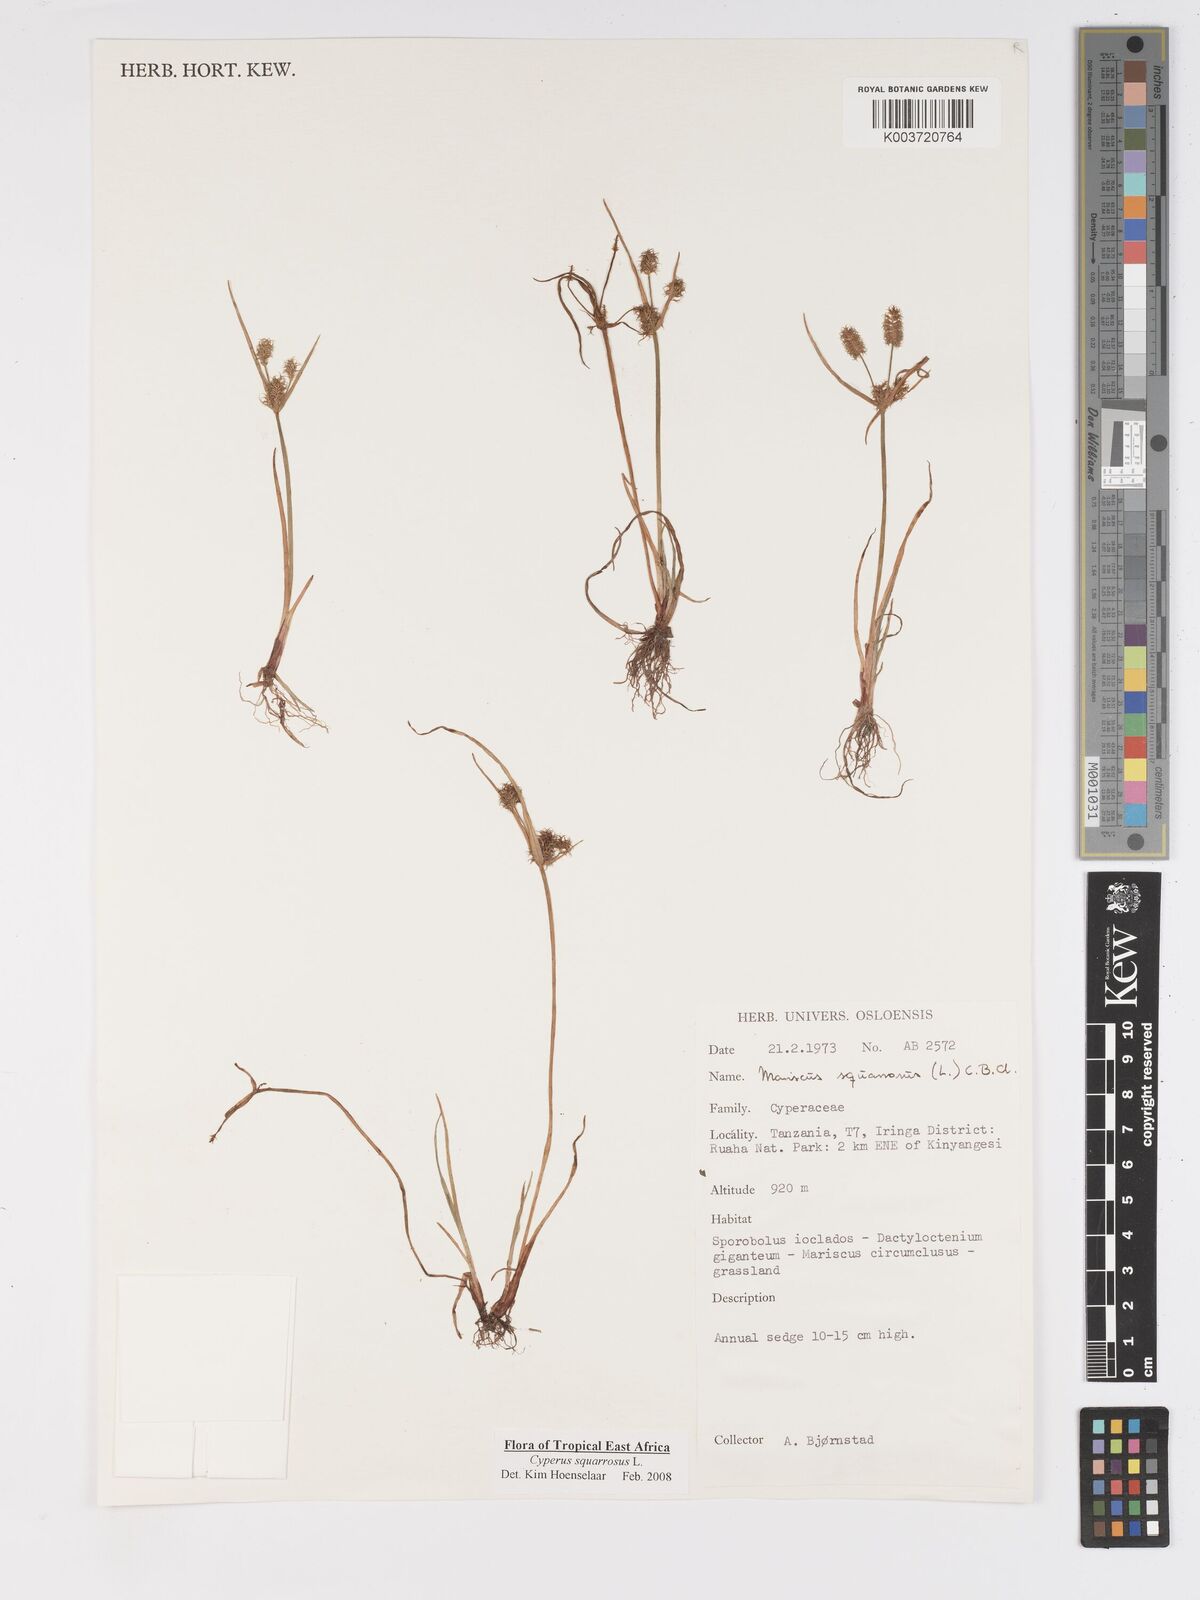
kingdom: Plantae
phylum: Tracheophyta
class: Liliopsida
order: Poales
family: Cyperaceae
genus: Cyperus
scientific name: Cyperus squarrosus
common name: Awned cyperus
